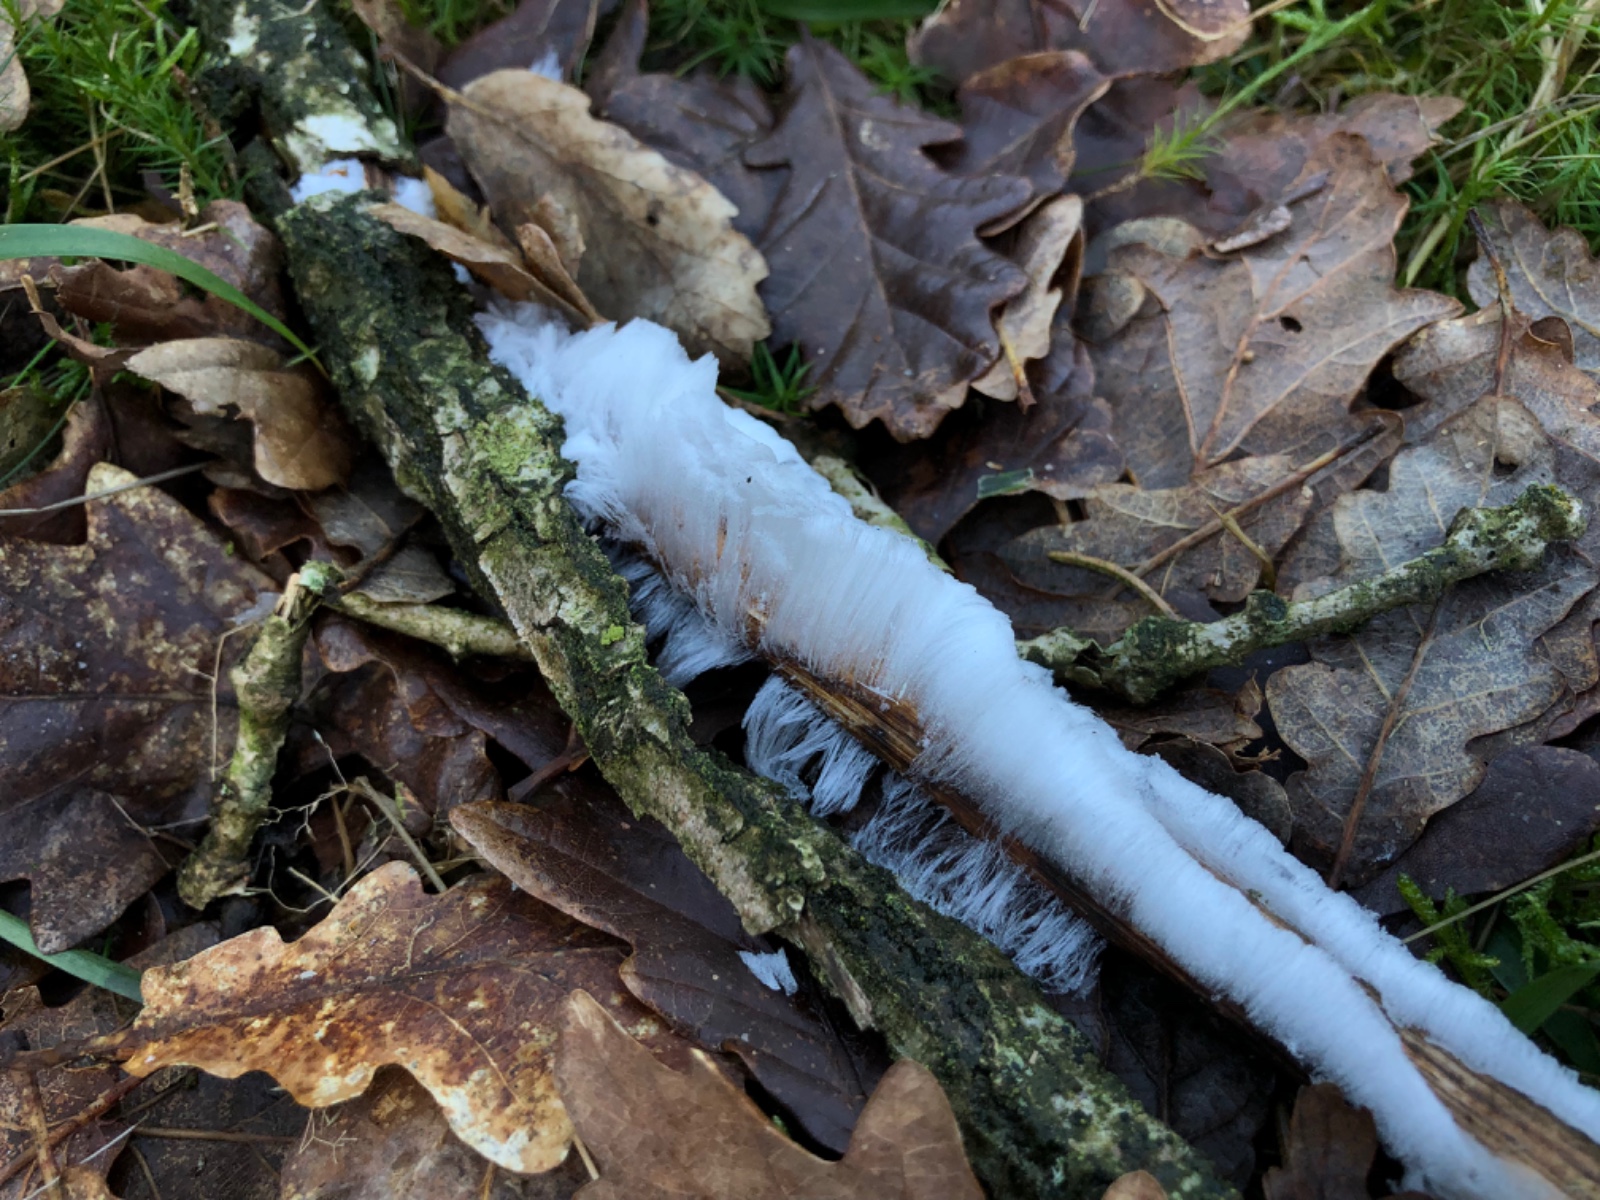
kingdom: Fungi
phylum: Basidiomycota
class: Tremellomycetes
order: Tremellales
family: Exidiaceae
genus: Exidiopsis
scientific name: Exidiopsis effusa
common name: smuk bævrehinde
